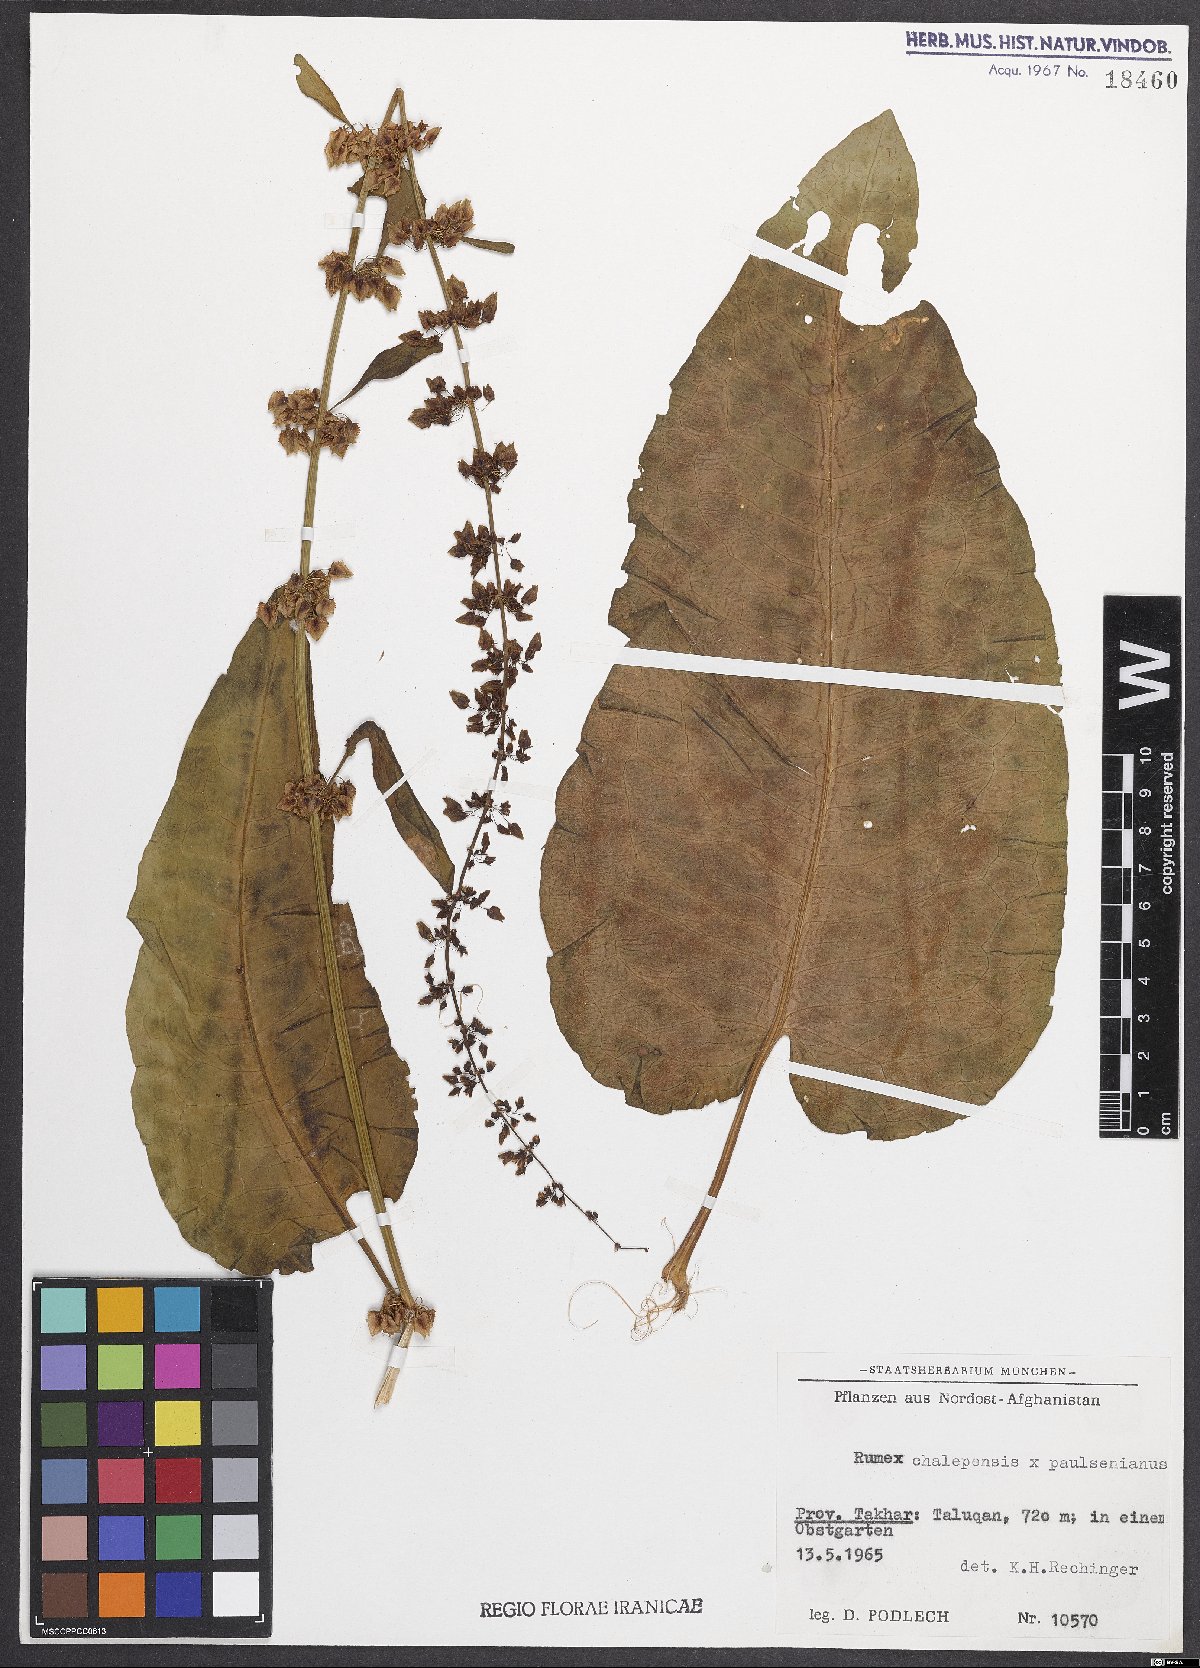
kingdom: Plantae
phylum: Tracheophyta
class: Magnoliopsida
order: Caryophyllales
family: Polygonaceae
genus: Rumex
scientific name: Rumex
